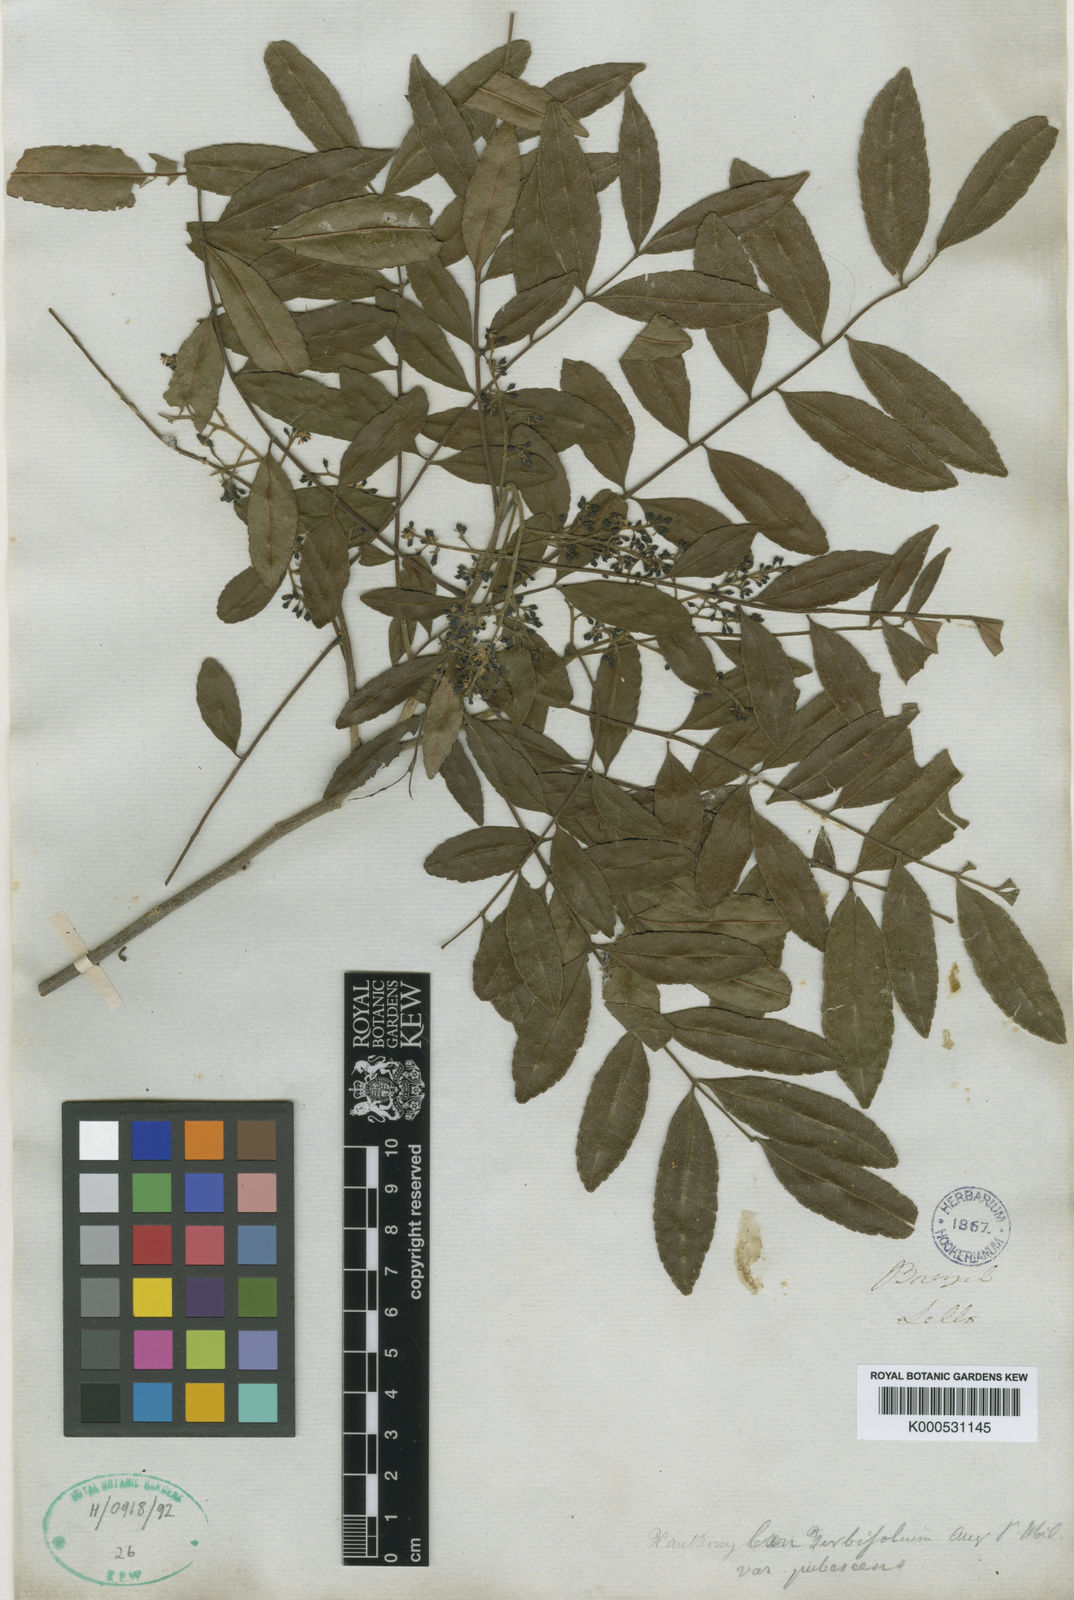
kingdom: Plantae
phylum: Tracheophyta
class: Magnoliopsida
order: Sapindales
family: Rutaceae
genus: Zanthoxylum
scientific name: Zanthoxylum rhoifolium
